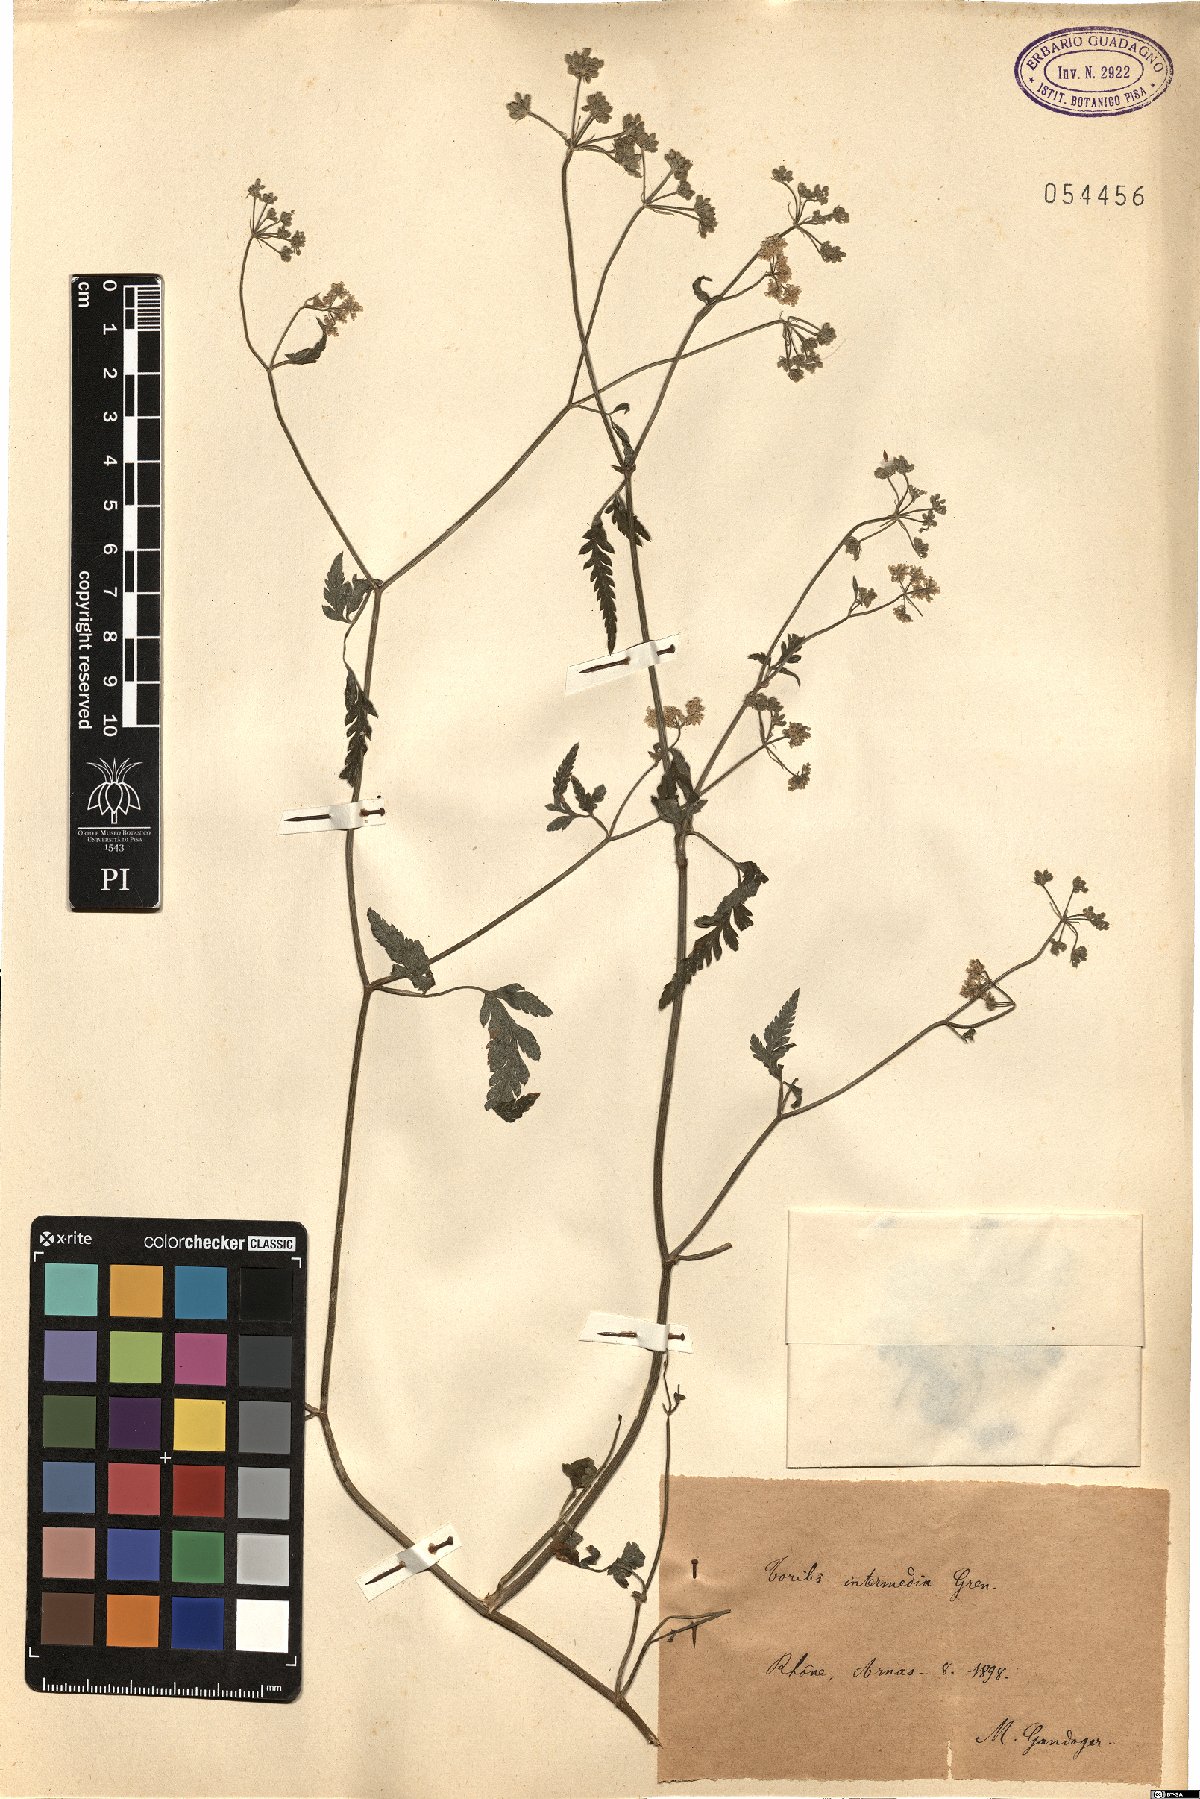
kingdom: Plantae
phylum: Tracheophyta
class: Magnoliopsida
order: Apiales
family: Apiaceae
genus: Anthriscus
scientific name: Anthriscus caucalis
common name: Bur chervil
